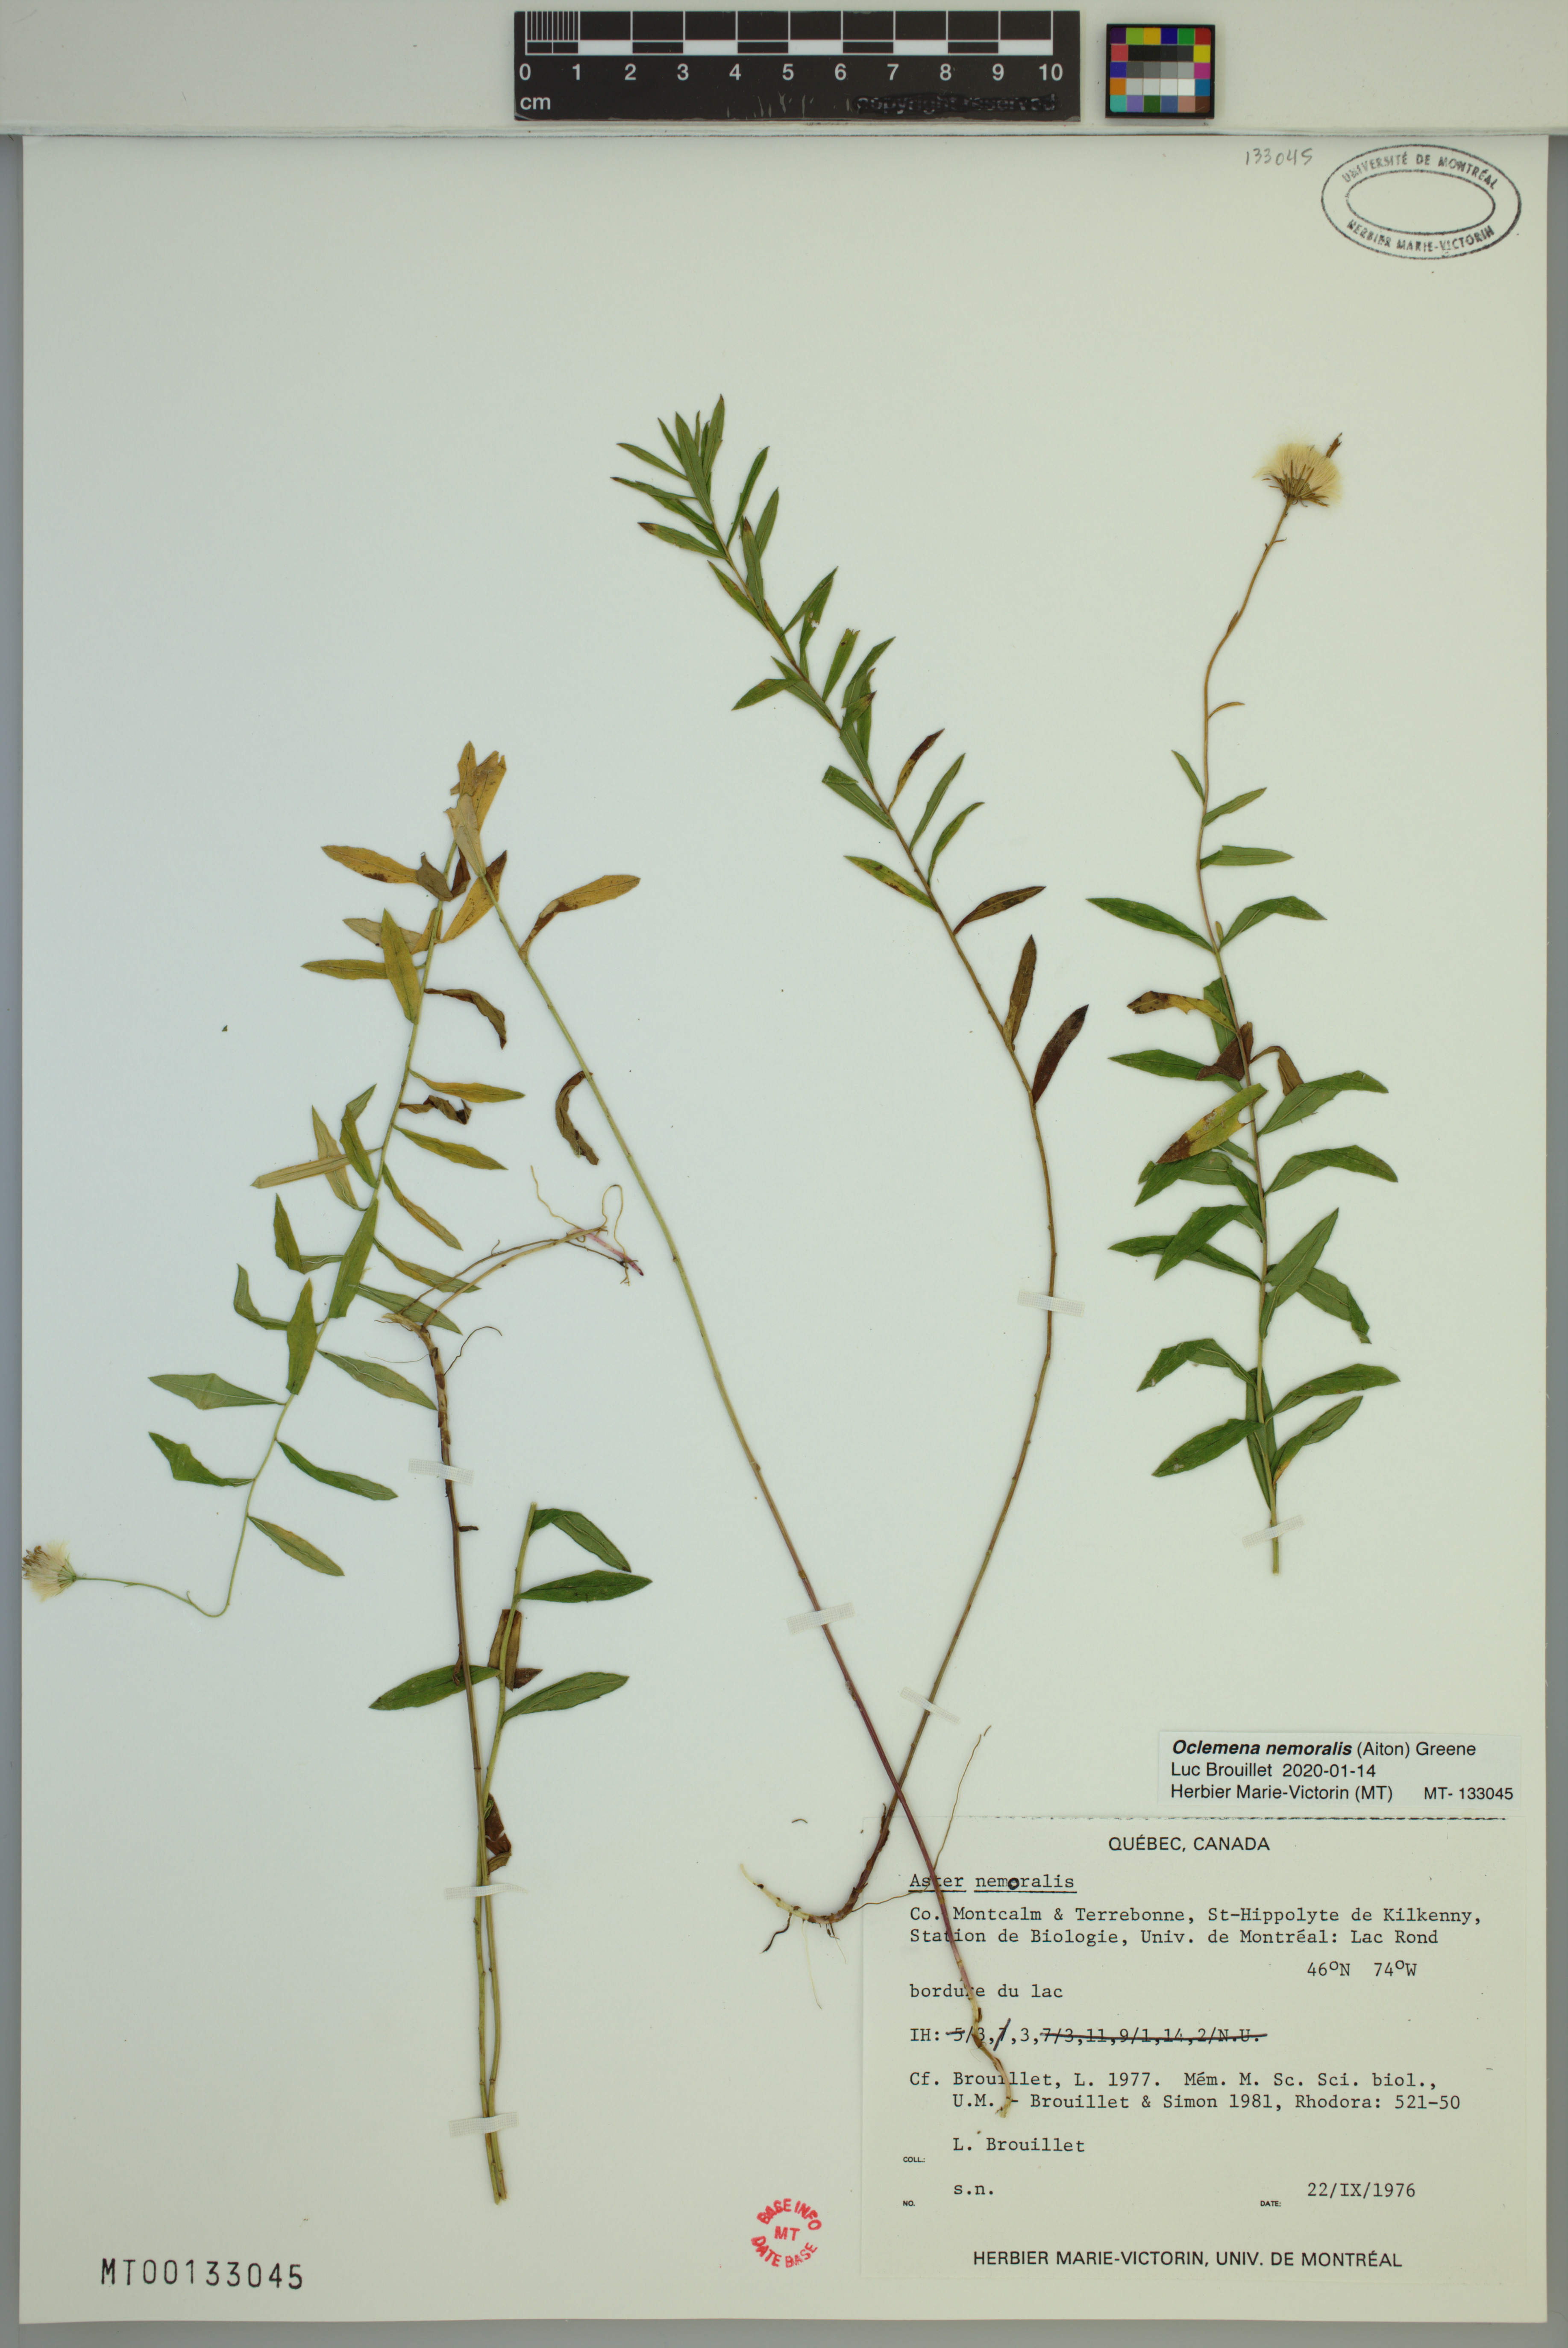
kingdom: Plantae
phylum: Tracheophyta
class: Magnoliopsida
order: Asterales
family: Asteraceae
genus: Oclemena
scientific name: Oclemena nemoralis
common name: Bog aster
